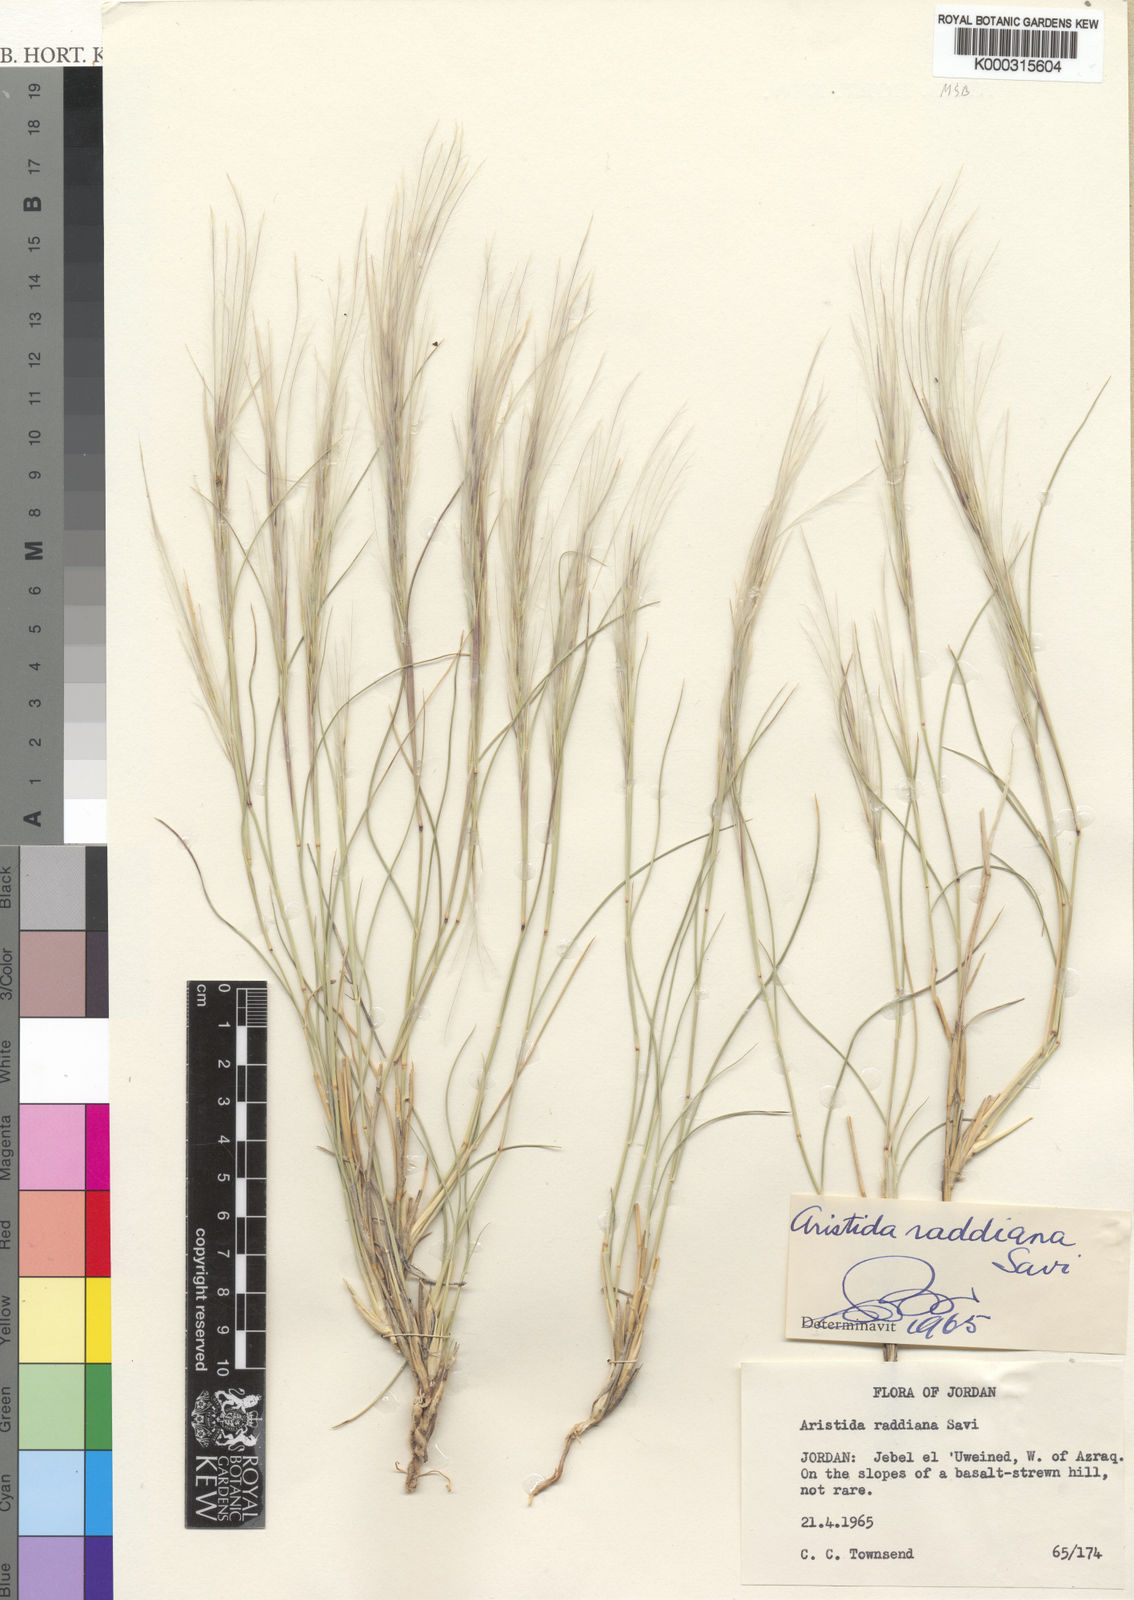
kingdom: Plantae
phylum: Tracheophyta
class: Liliopsida
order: Poales
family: Poaceae
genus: Stipagrostis
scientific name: Stipagrostis raddiana
